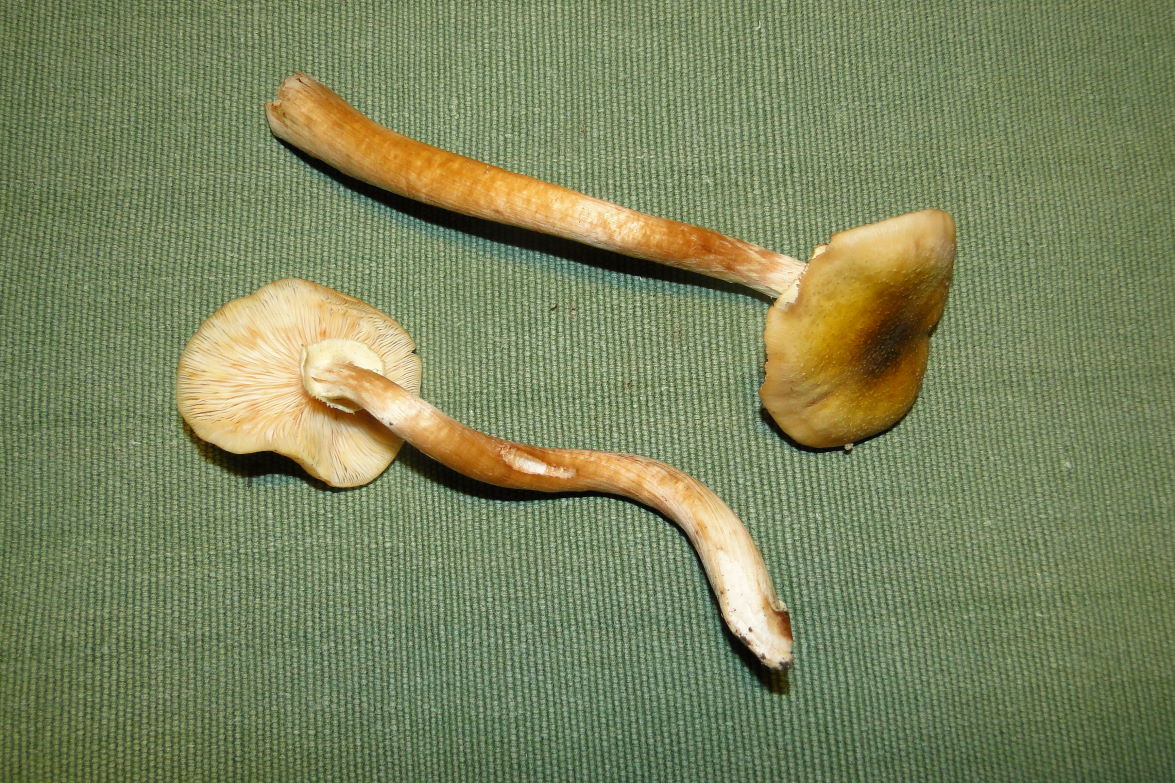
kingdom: Fungi
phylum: Basidiomycota
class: Agaricomycetes
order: Agaricales
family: Physalacriaceae
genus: Armillaria
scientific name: Armillaria mellea
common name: ægte honningsvamp
